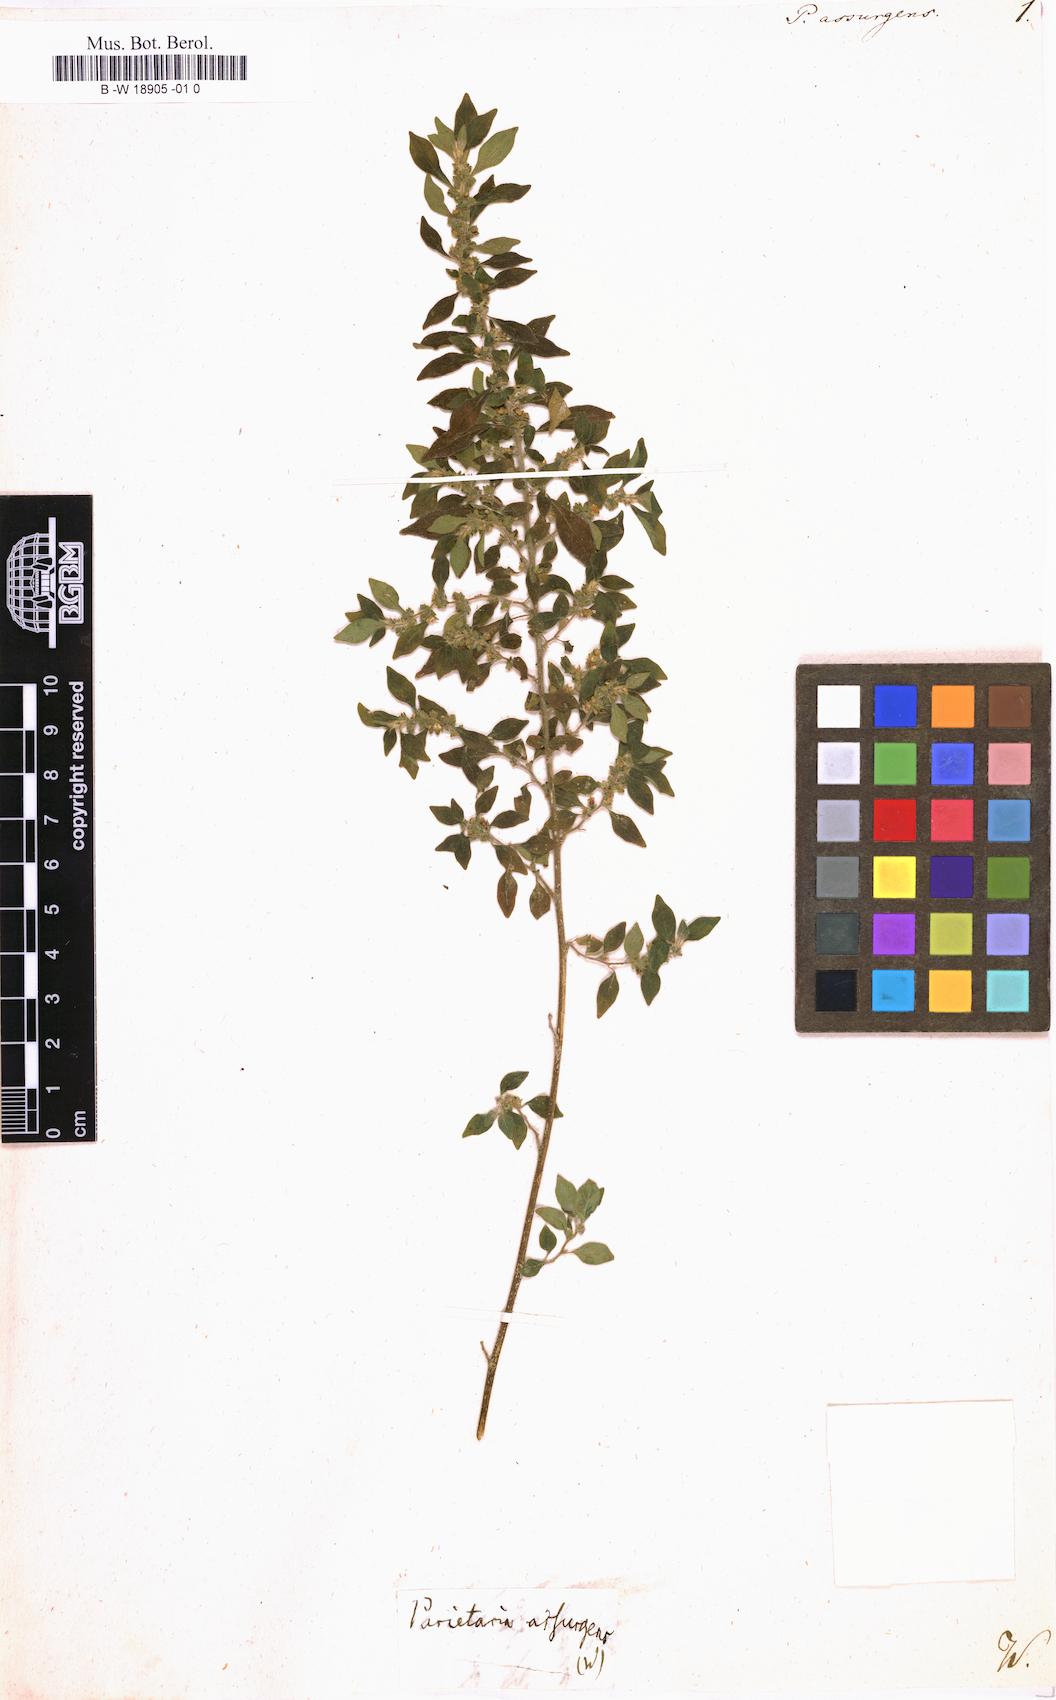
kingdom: Plantae
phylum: Tracheophyta
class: Magnoliopsida
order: Rosales
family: Urticaceae
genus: Parietaria
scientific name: Parietaria officinalis
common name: Eastern pellitory-of-the-wall
